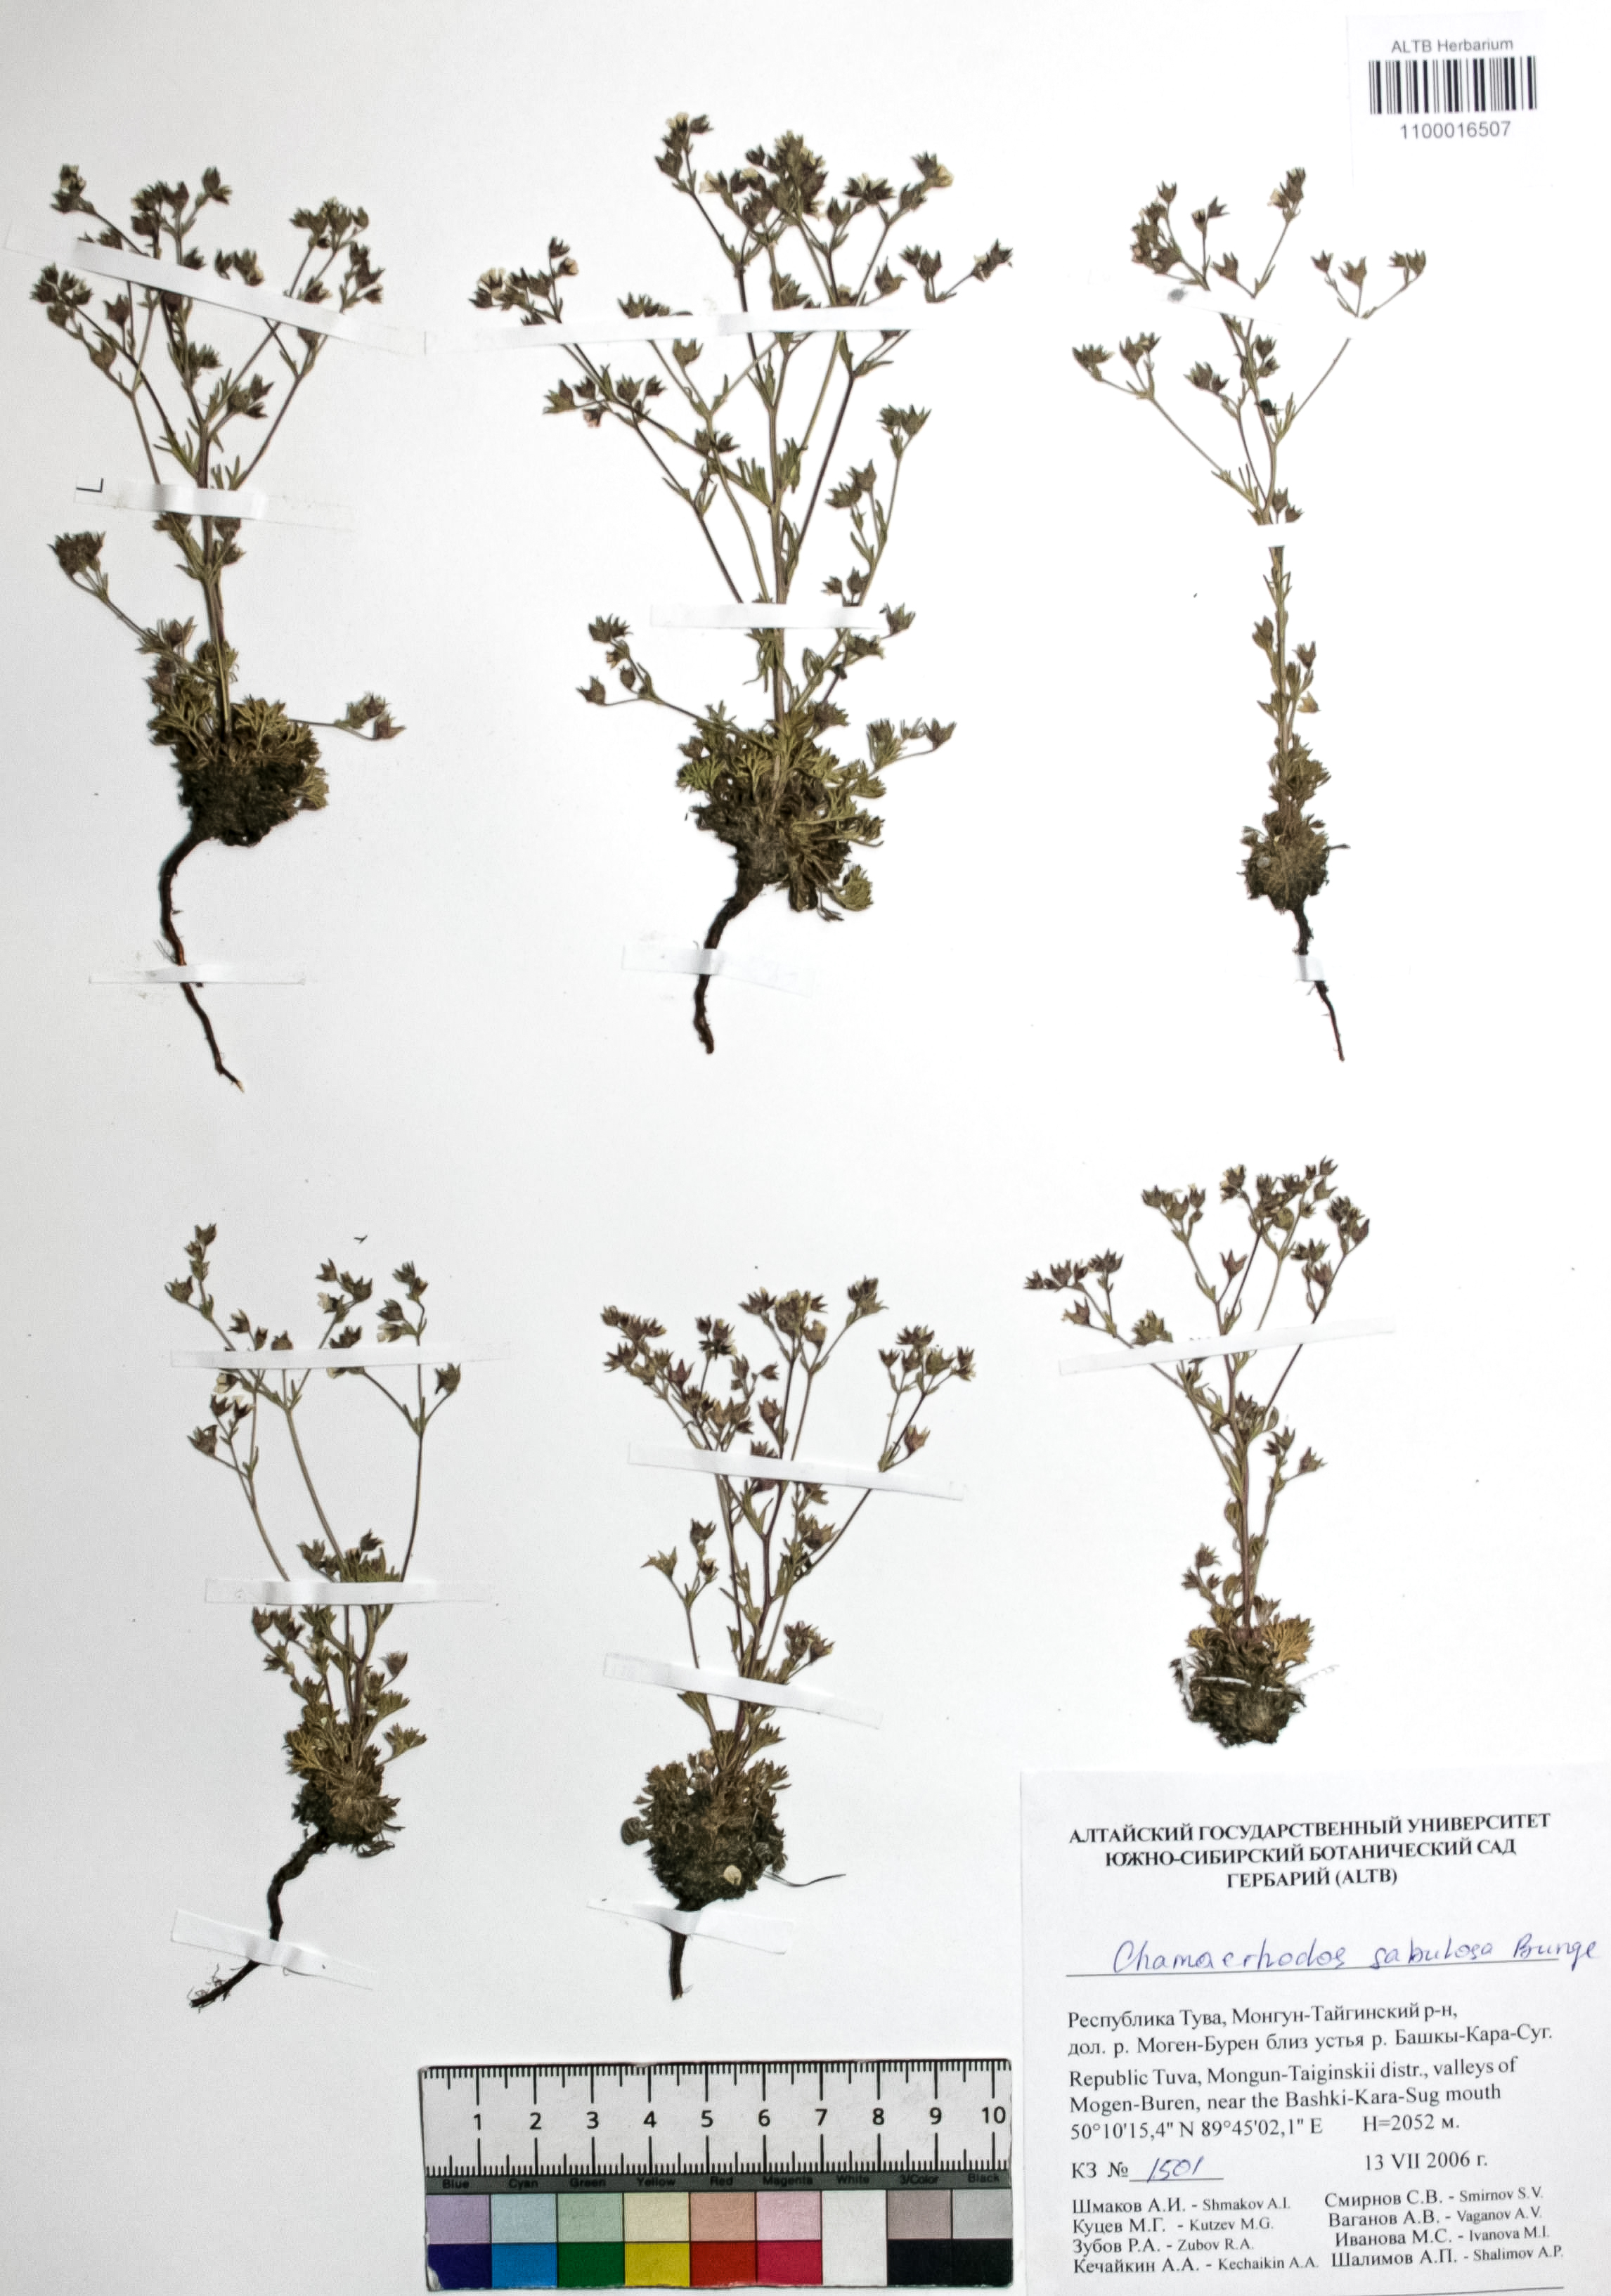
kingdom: Plantae
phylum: Tracheophyta
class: Magnoliopsida
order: Rosales
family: Rosaceae
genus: Chamaerhodos
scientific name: Chamaerhodos sabulosa
